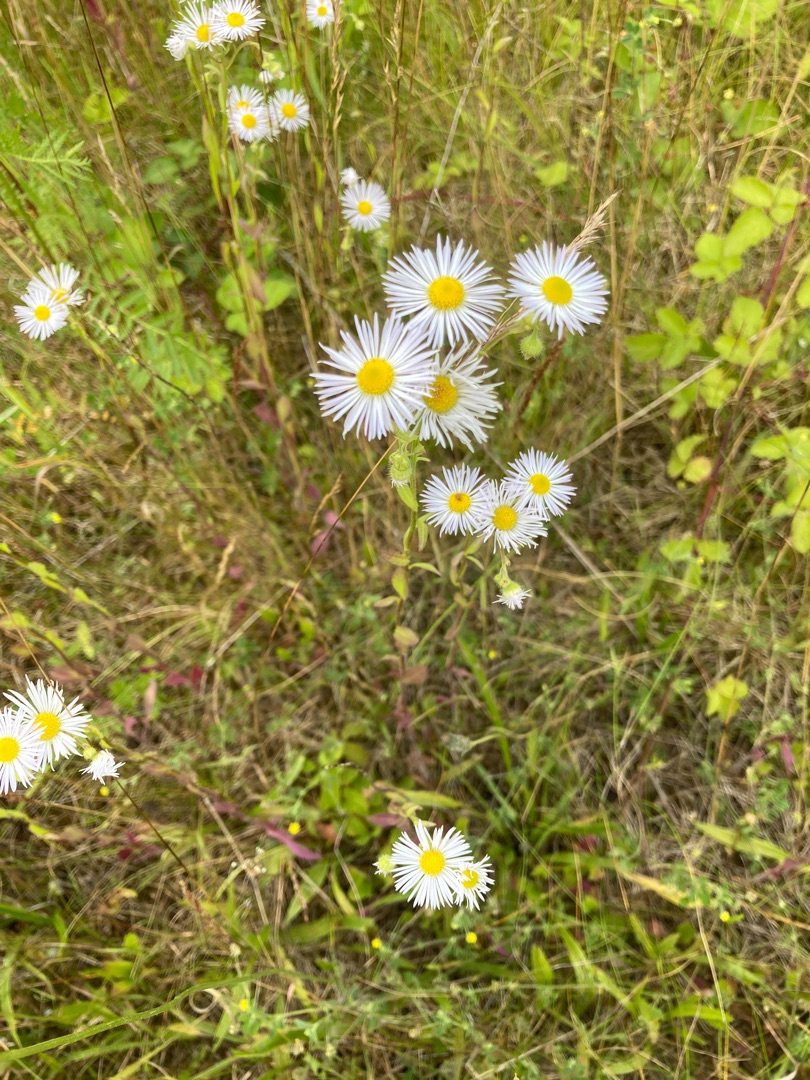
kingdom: Plantae
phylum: Tracheophyta
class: Magnoliopsida
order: Asterales
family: Asteraceae
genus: Erigeron
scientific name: Erigeron annuus
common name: Smalstråle
